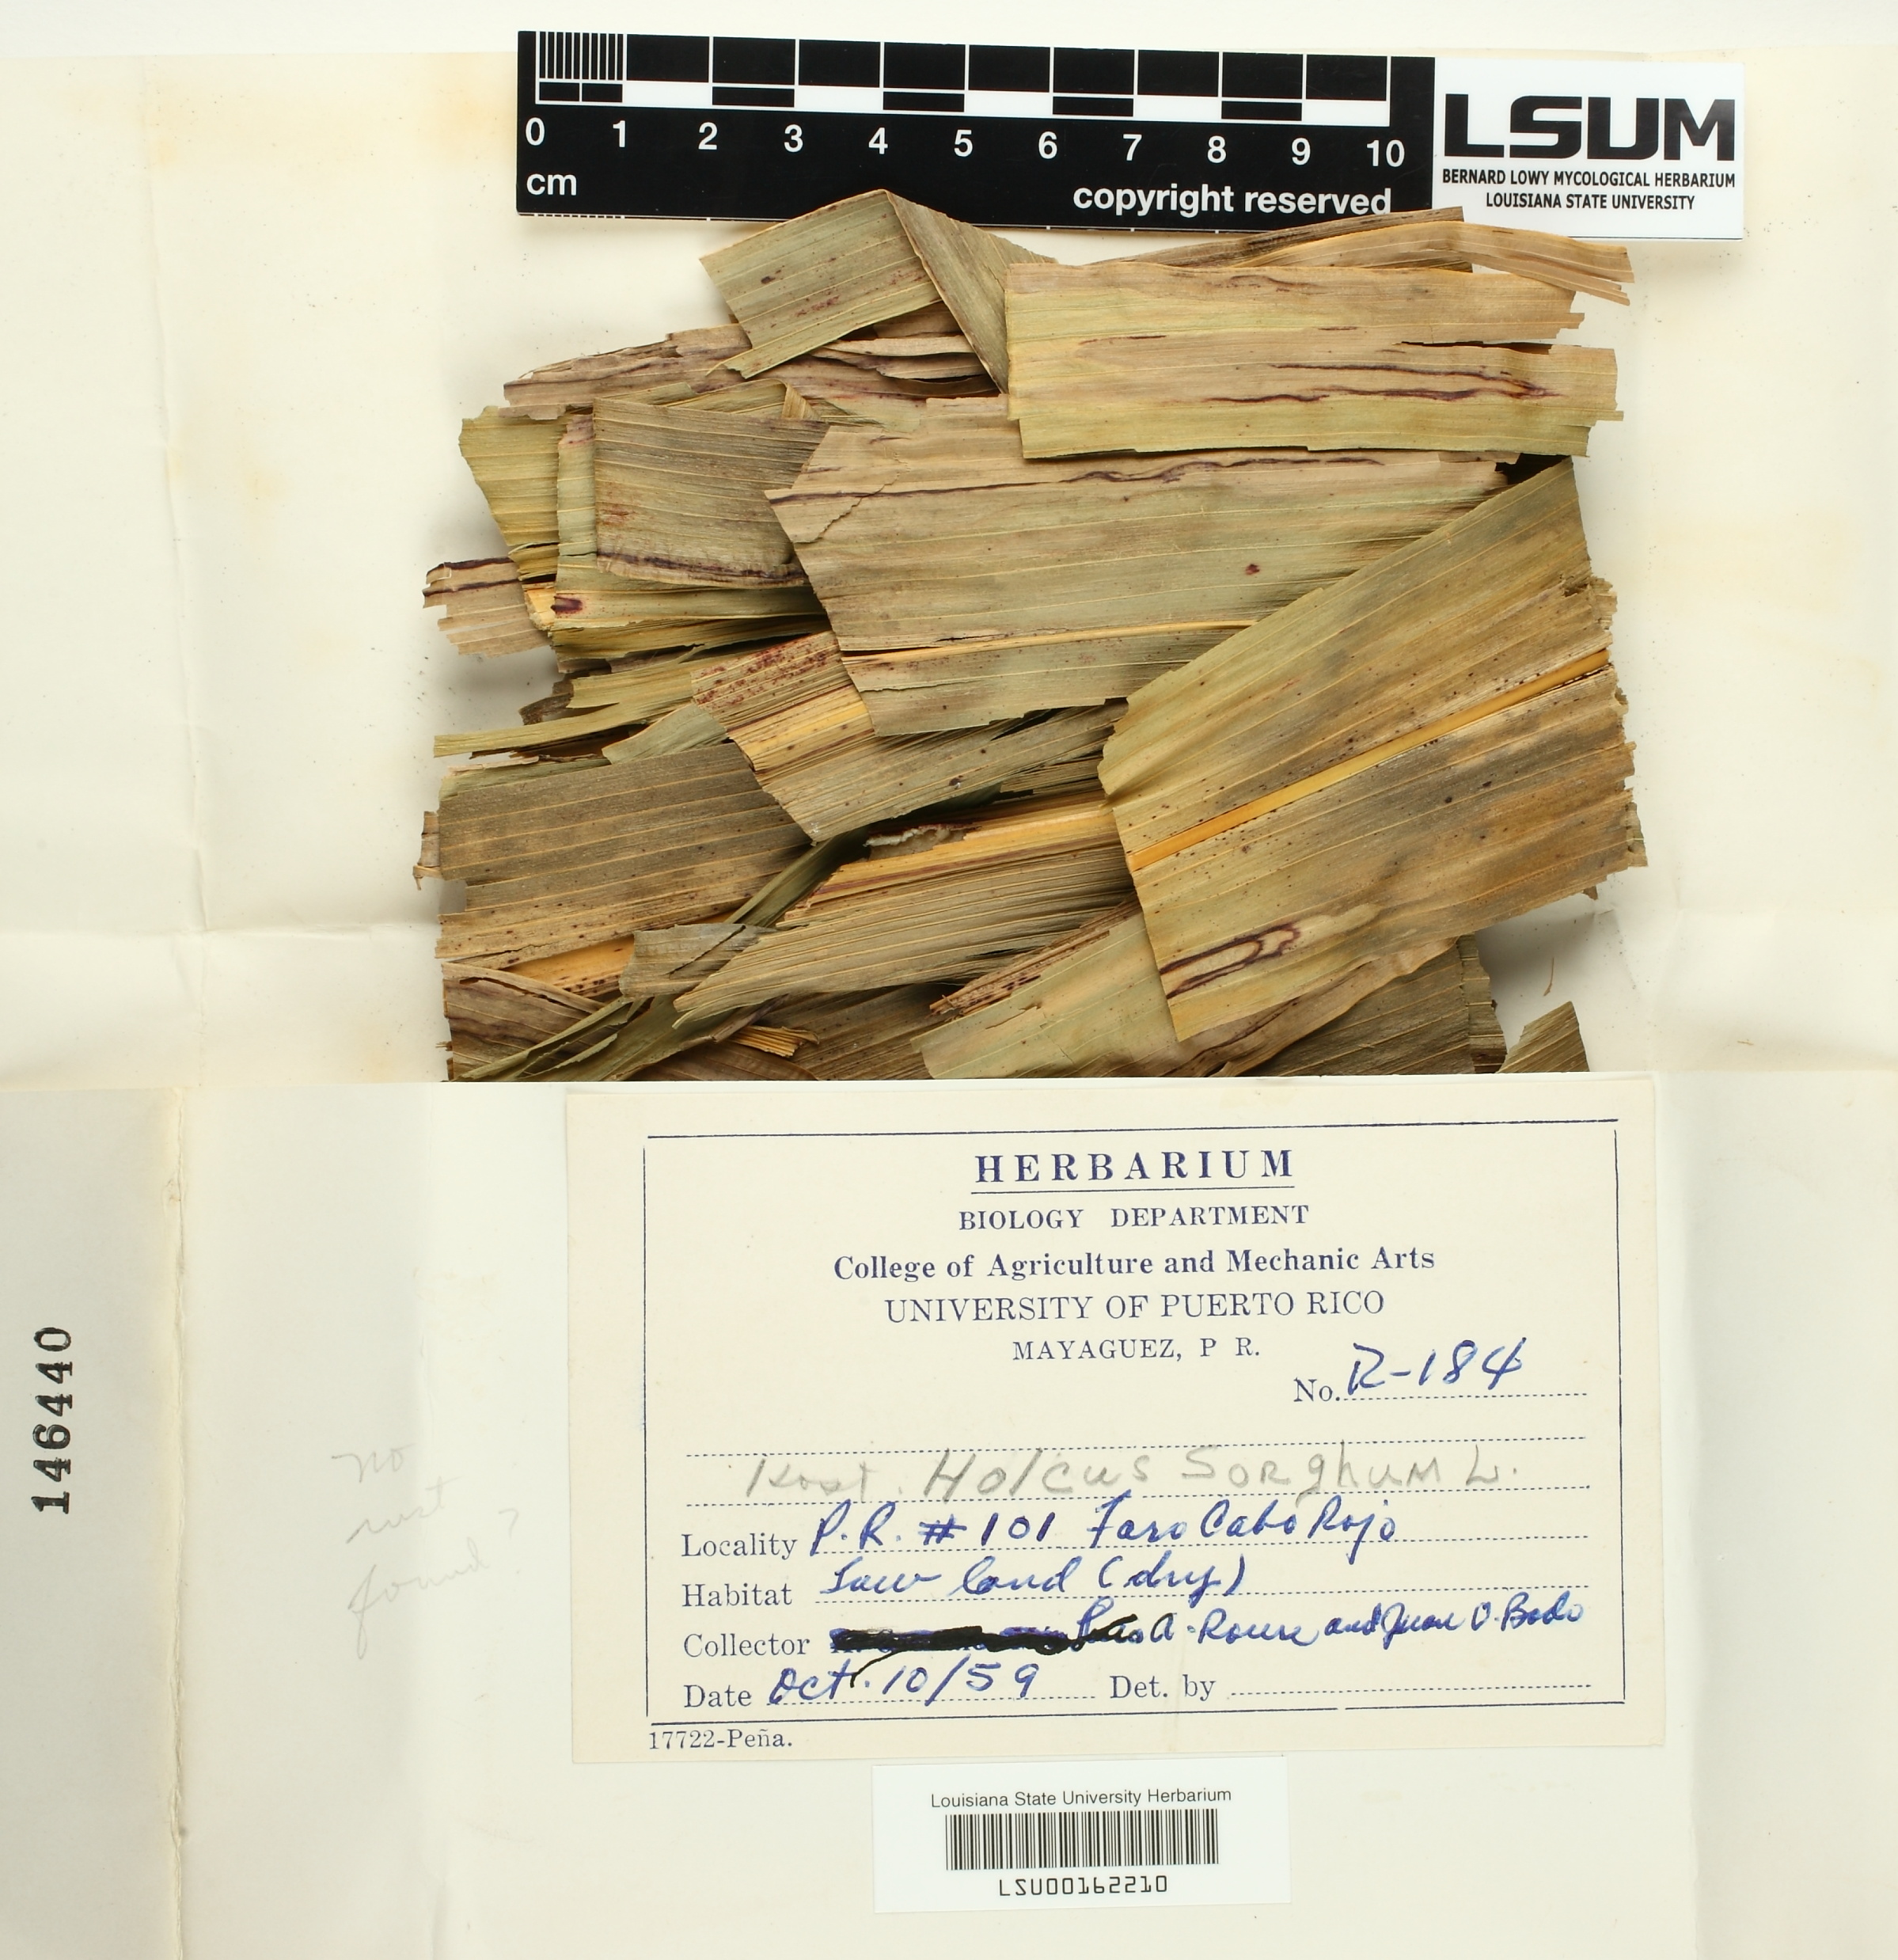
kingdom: Fungi
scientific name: Fungi
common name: Fungi
